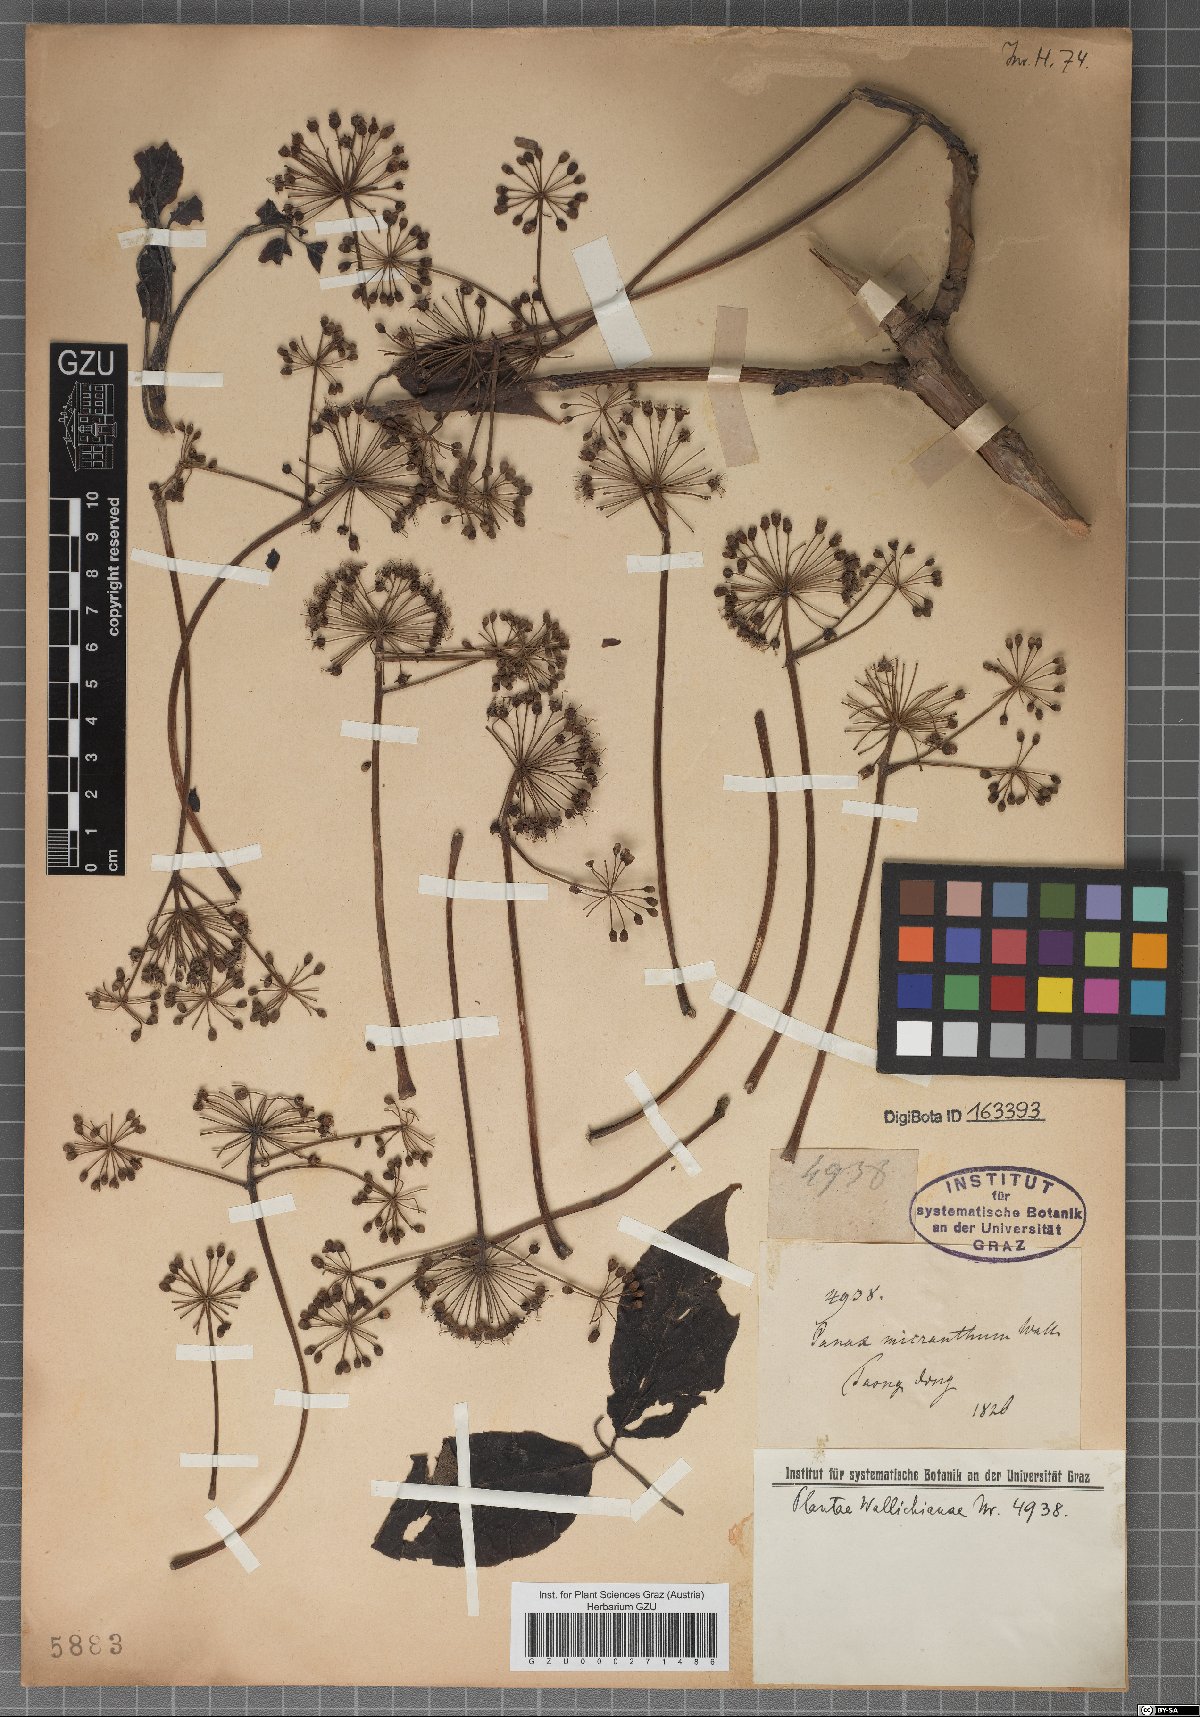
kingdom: Plantae
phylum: Tracheophyta
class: Magnoliopsida
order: Vitales
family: Vitaceae
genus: Vitis
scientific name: Vitis micrantha
